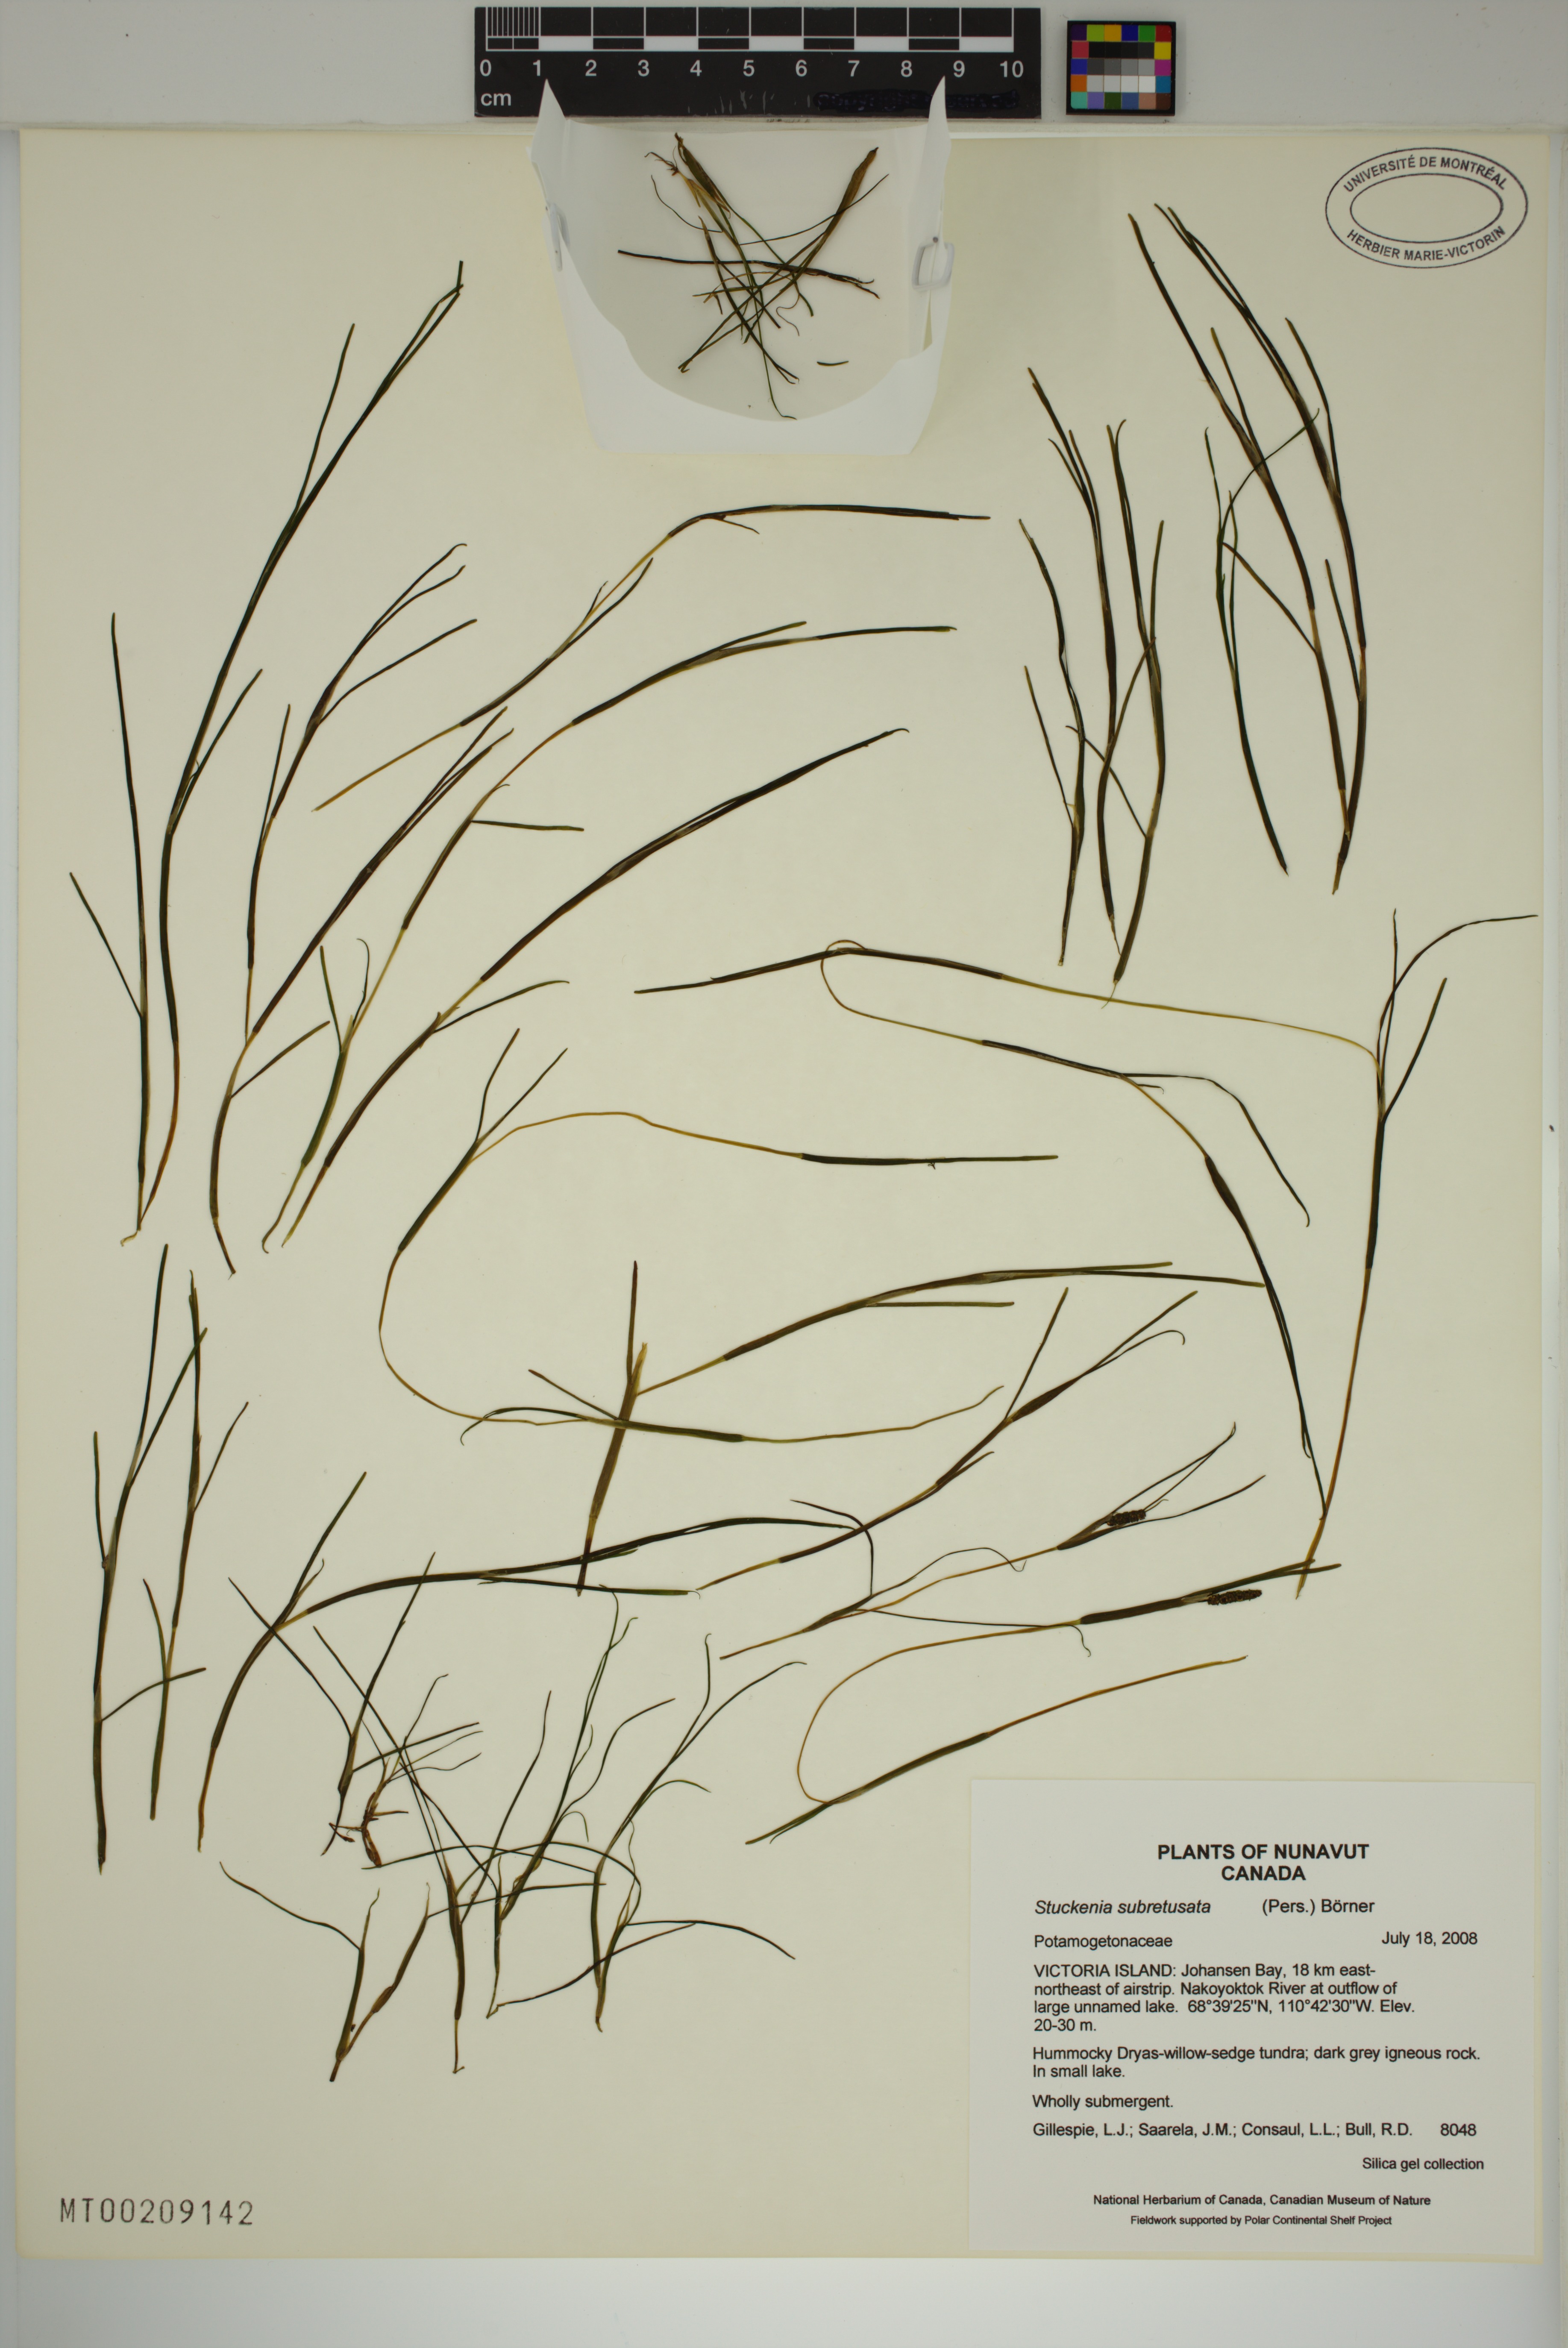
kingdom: Plantae
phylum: Tracheophyta
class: Liliopsida
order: Alismatales
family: Potamogetonaceae
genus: Stuckenia
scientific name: Stuckenia vaginata
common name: Big-sheathed pondweed
